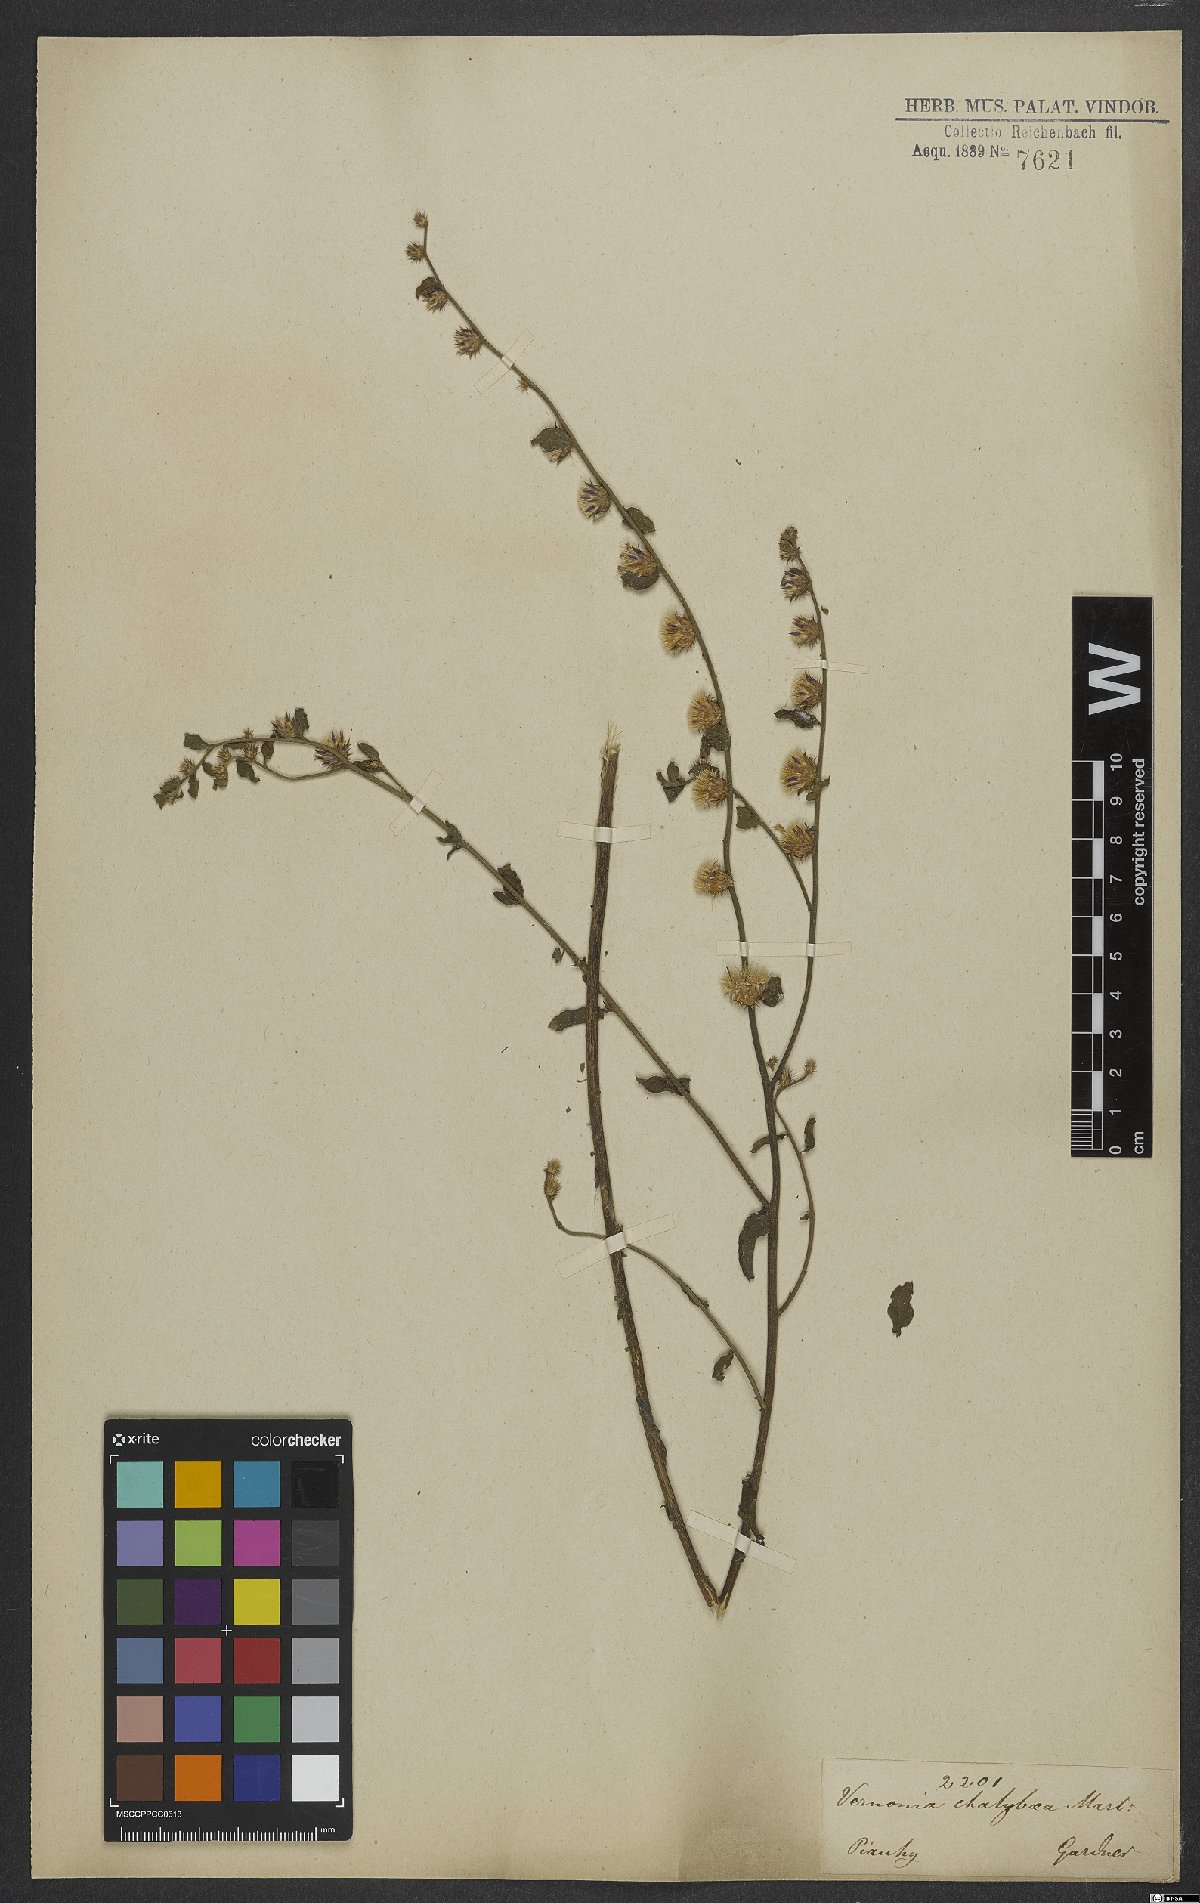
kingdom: Plantae
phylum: Tracheophyta
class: Magnoliopsida
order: Asterales
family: Asteraceae
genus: Lepidaploa
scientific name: Lepidaploa chalybaea
